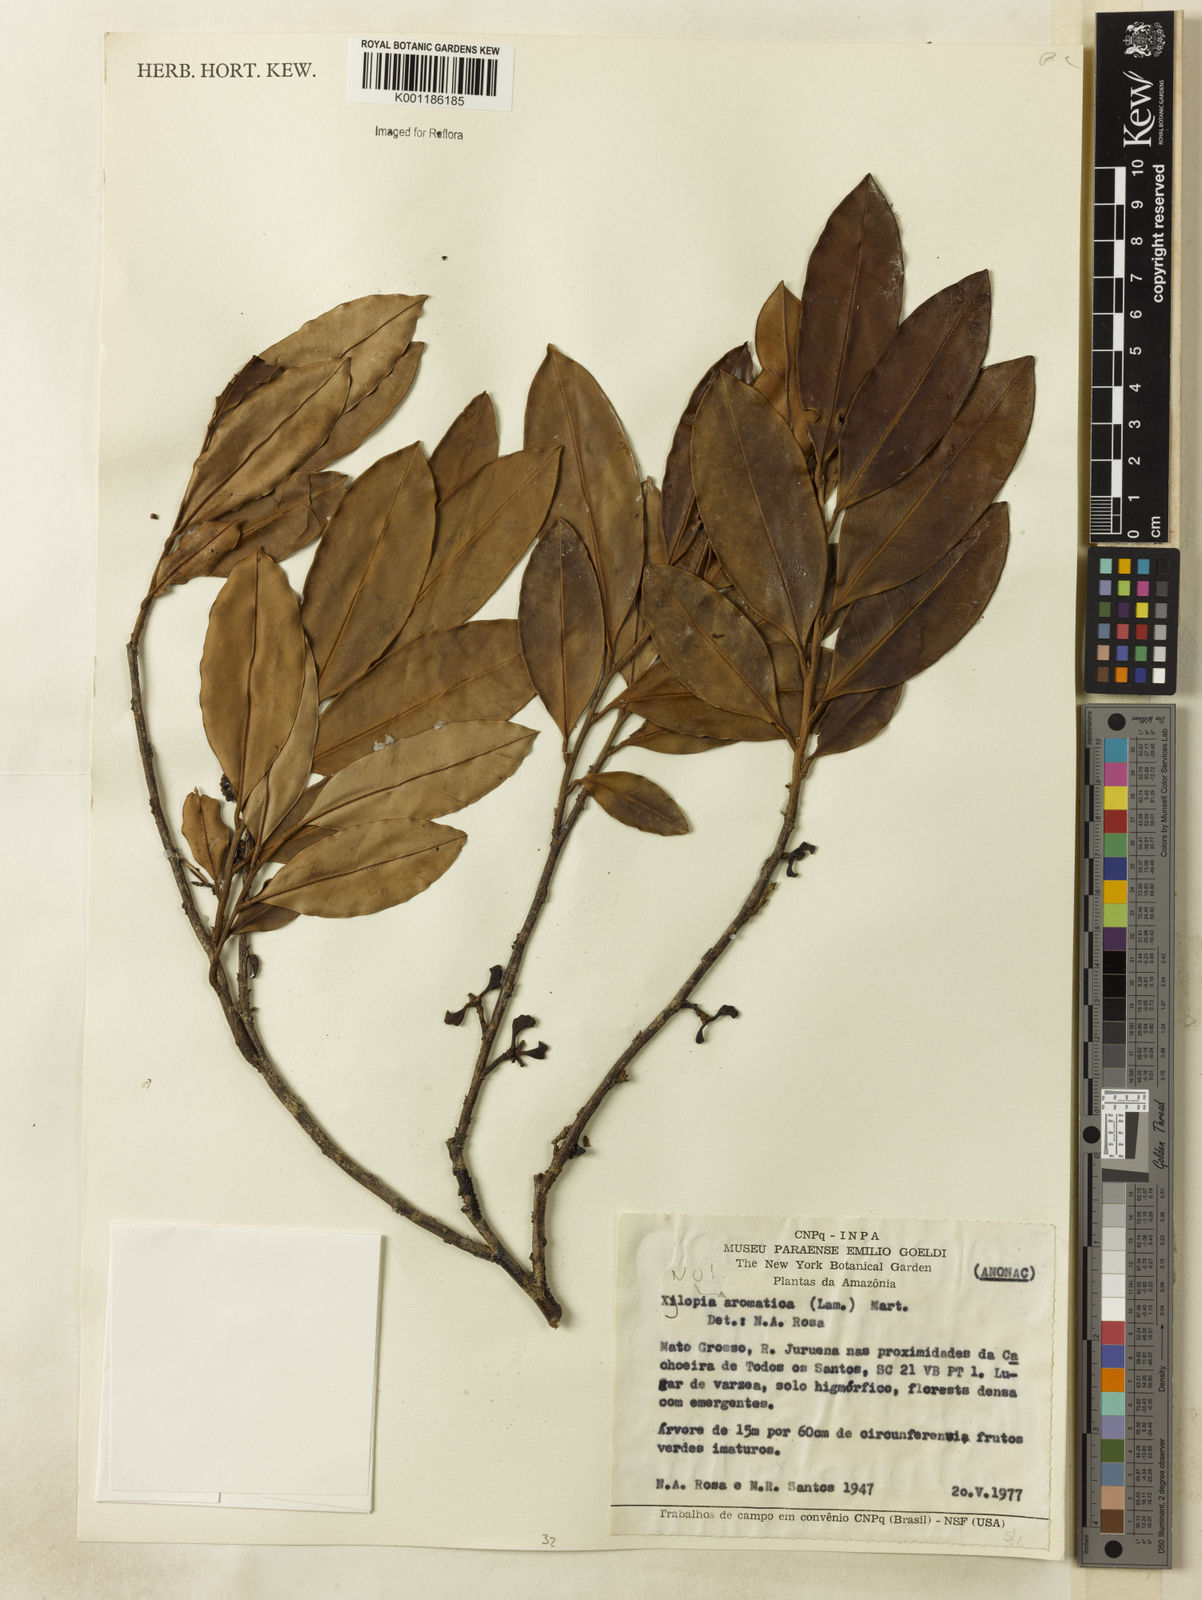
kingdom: Plantae
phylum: Tracheophyta
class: Magnoliopsida
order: Magnoliales
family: Annonaceae
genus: Xylopia
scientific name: Xylopia
